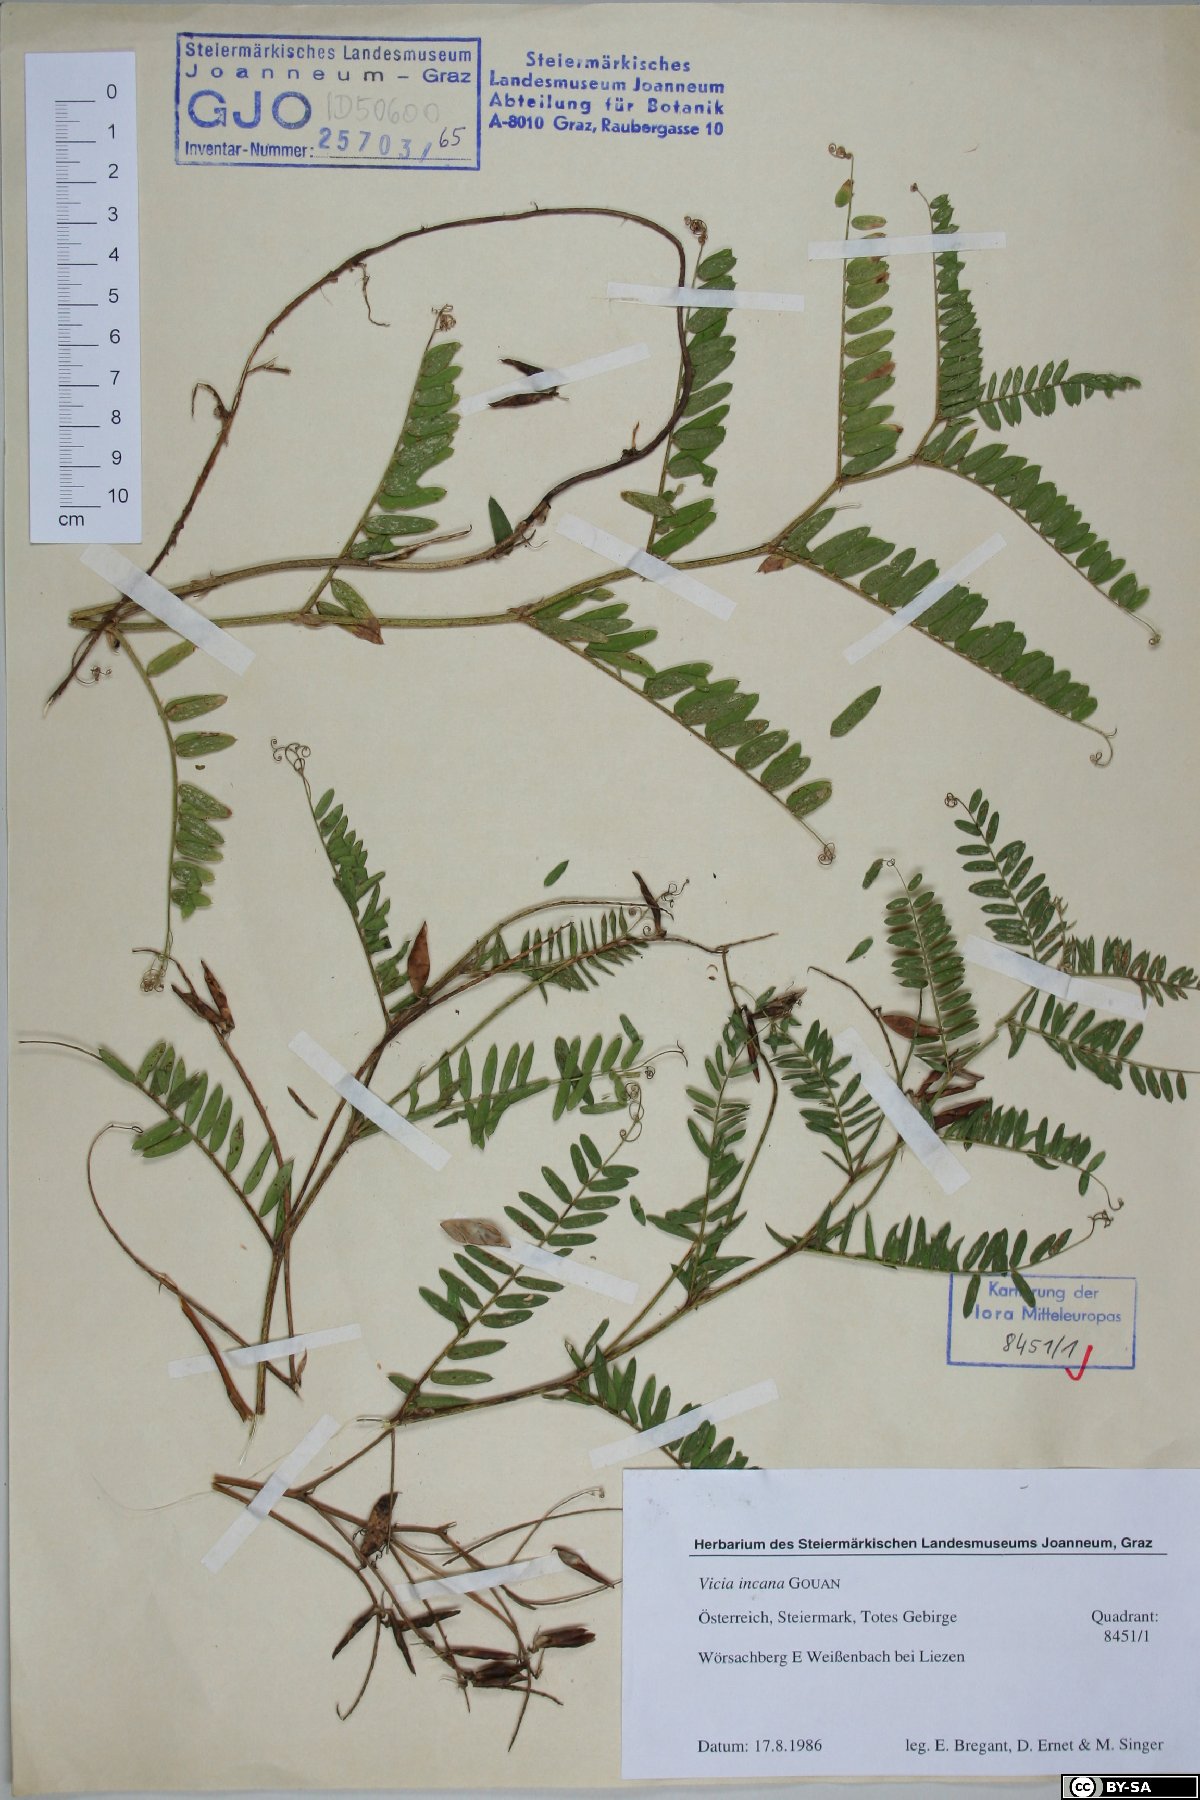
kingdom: Plantae
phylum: Tracheophyta
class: Magnoliopsida
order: Fabales
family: Fabaceae
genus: Vicia
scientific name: Vicia incana
